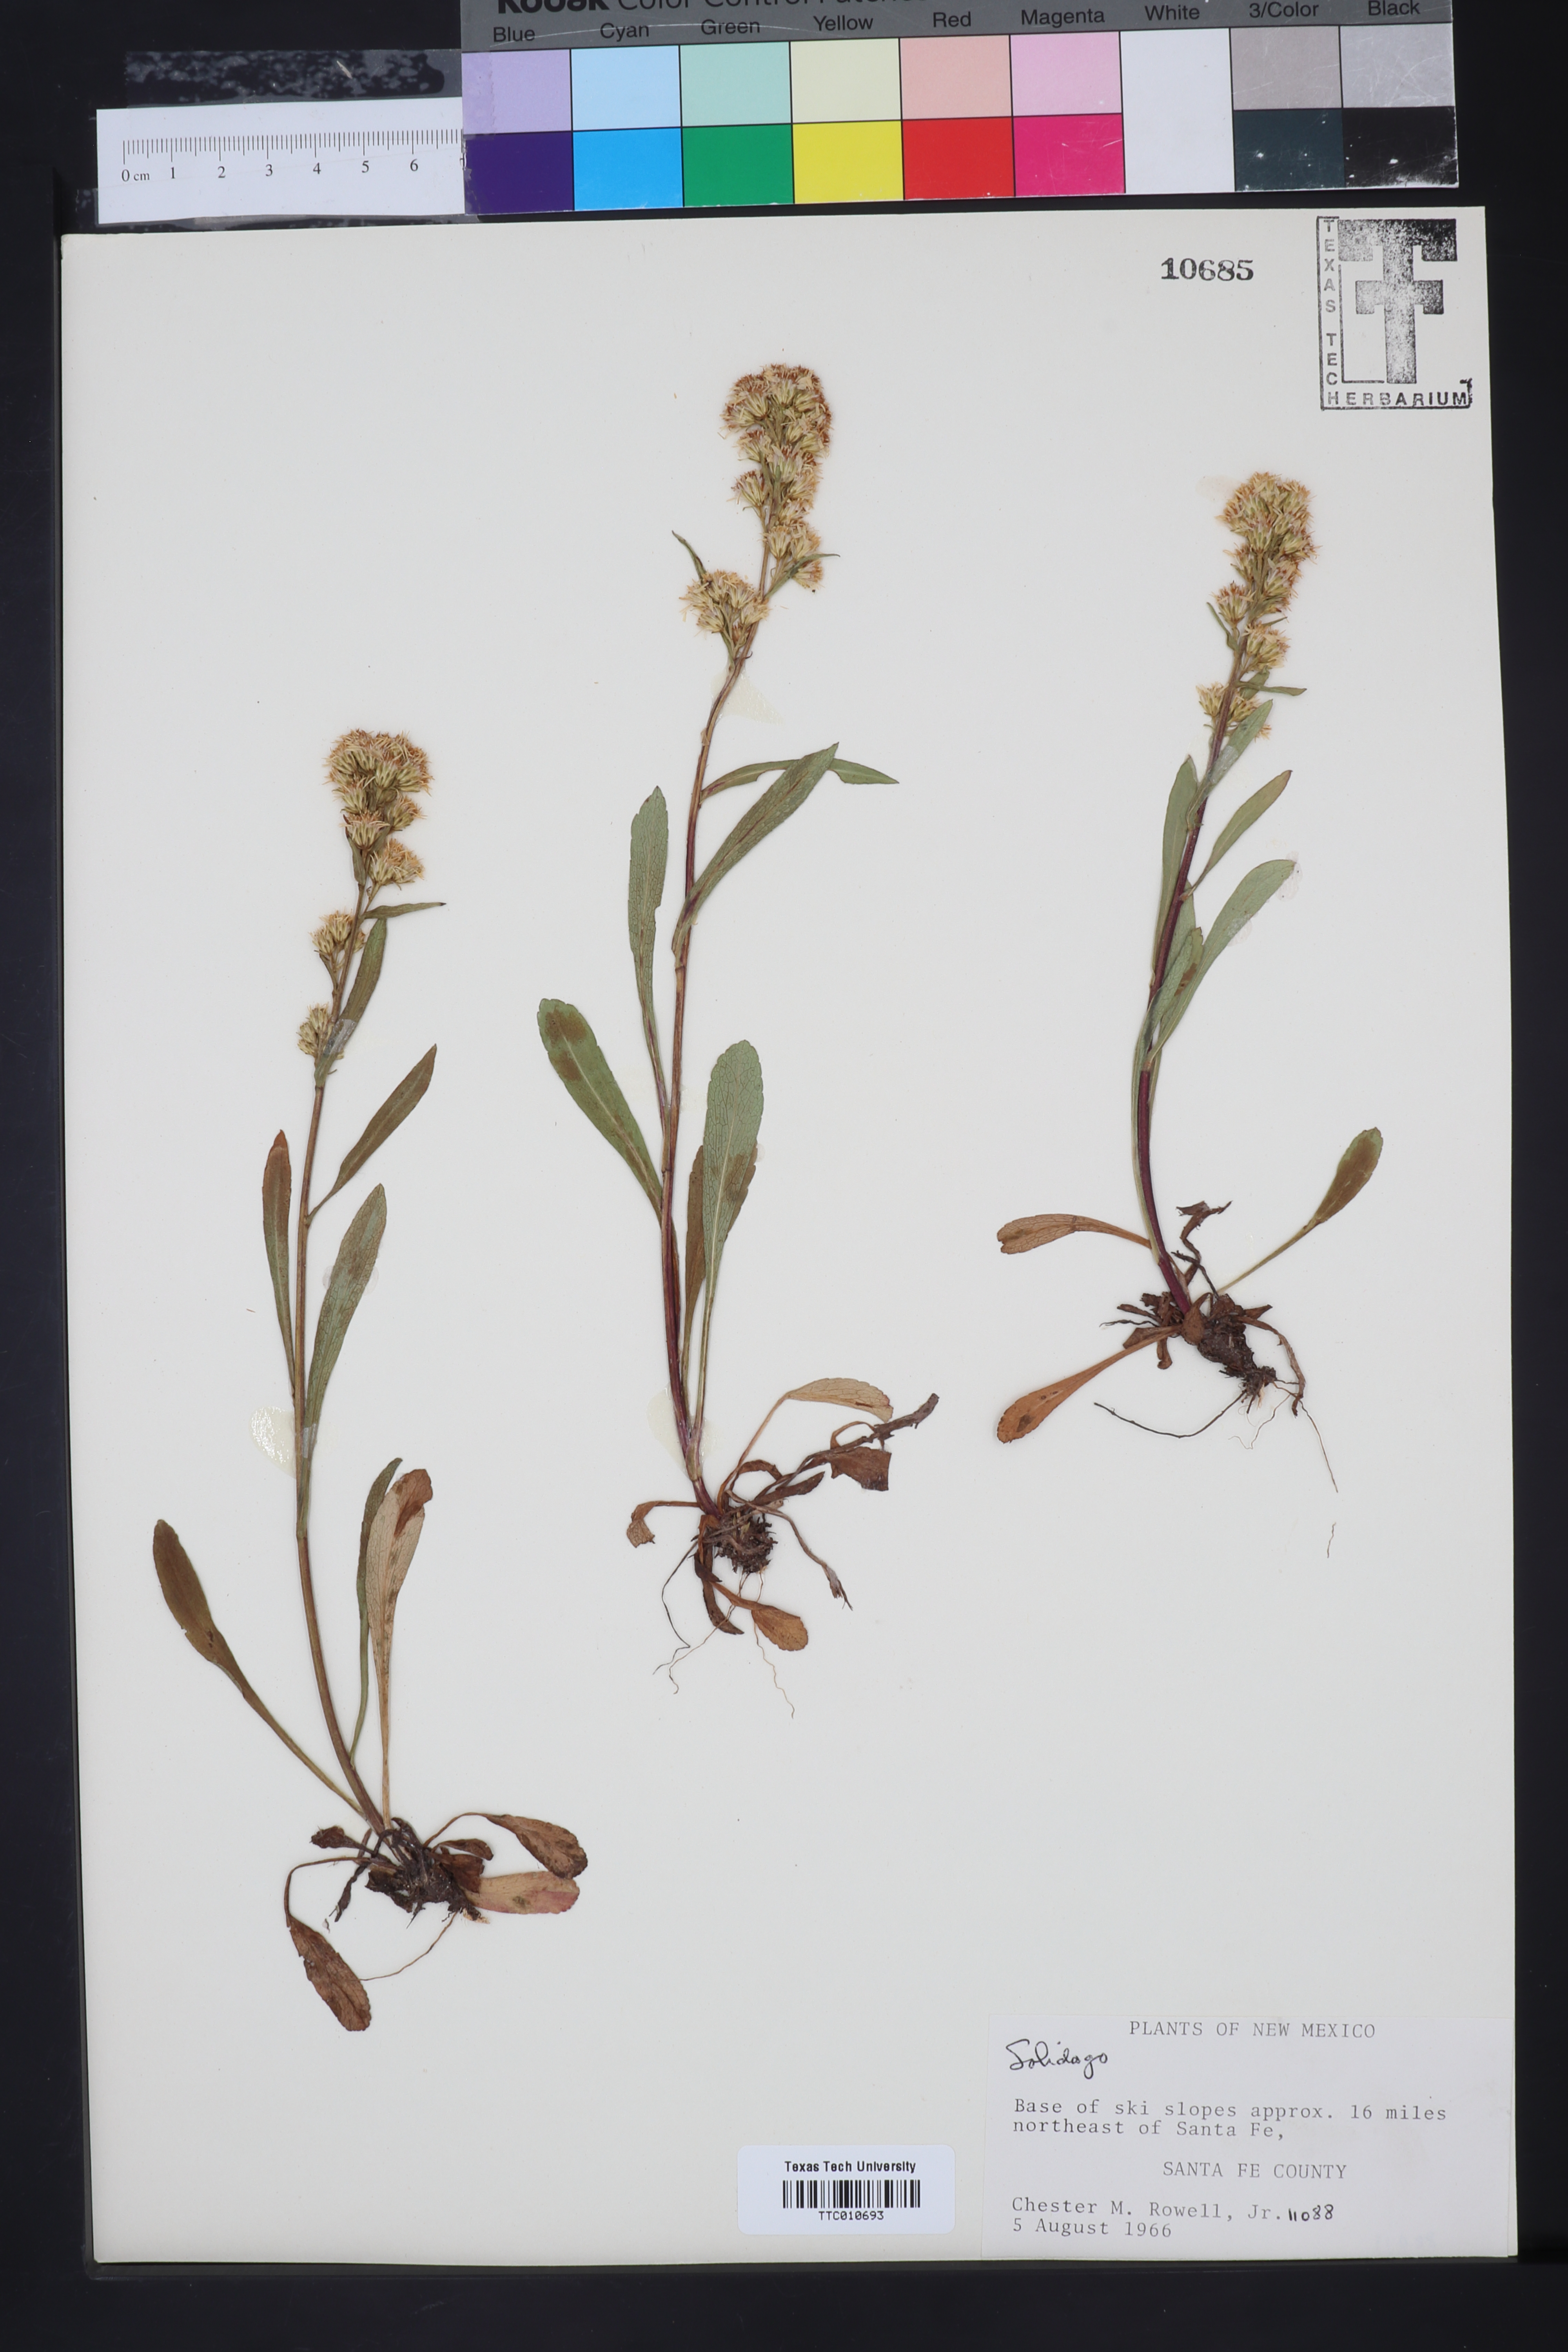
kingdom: Plantae
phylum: Tracheophyta
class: Magnoliopsida
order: Asterales
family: Asteraceae
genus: Solidago
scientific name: Solidago
